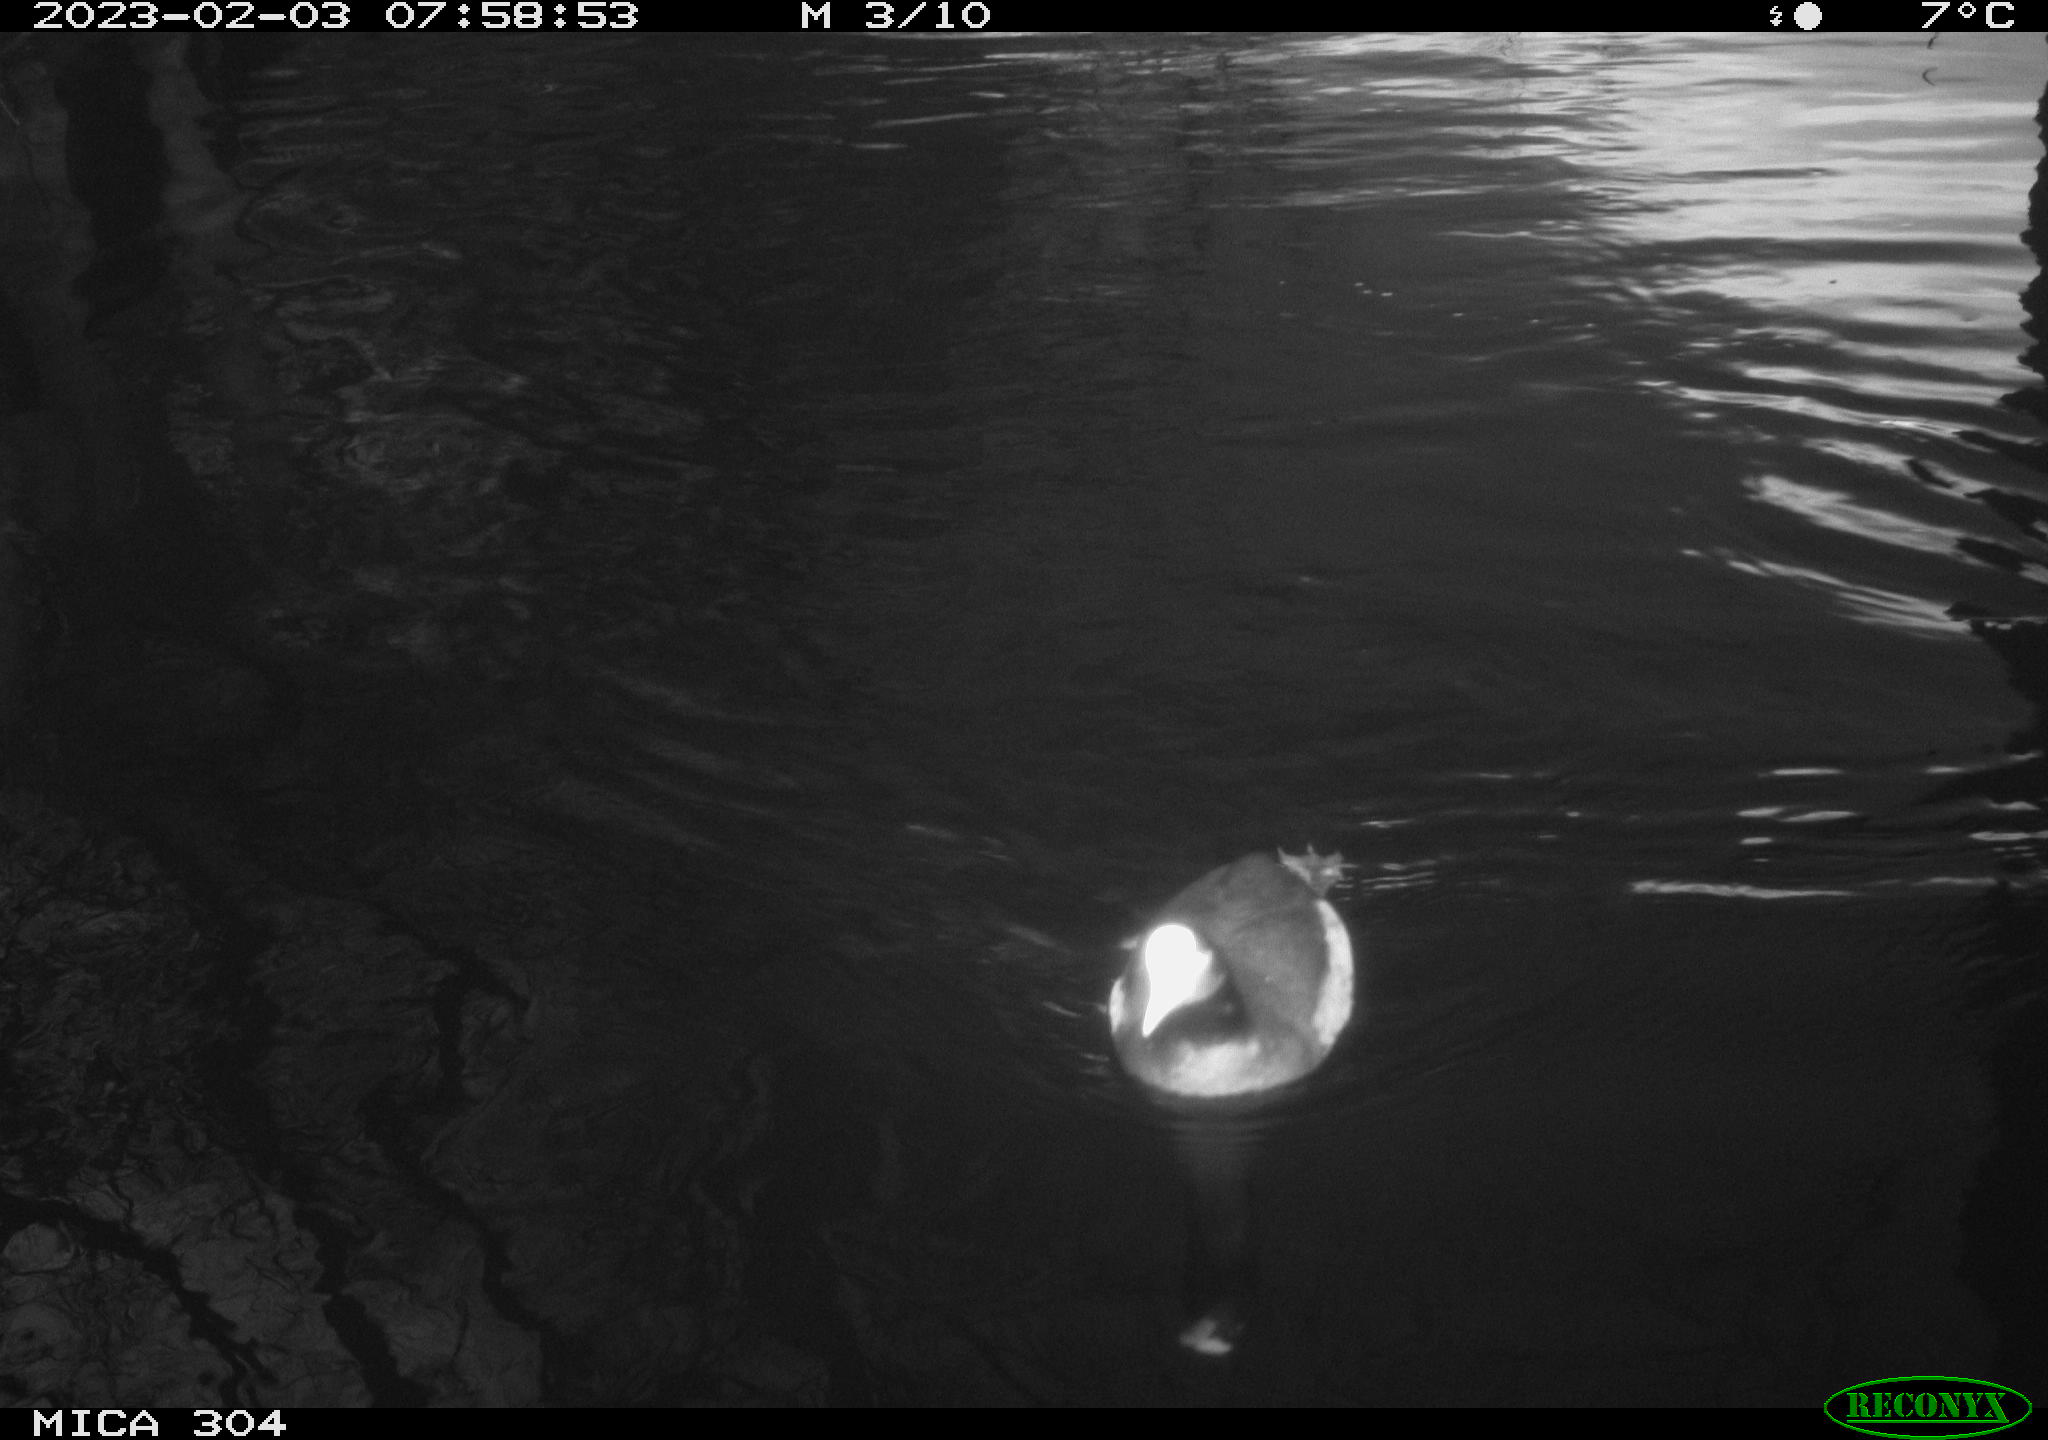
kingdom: Animalia
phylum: Chordata
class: Aves
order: Gruiformes
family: Rallidae
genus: Gallinula
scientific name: Gallinula chloropus
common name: Common moorhen
